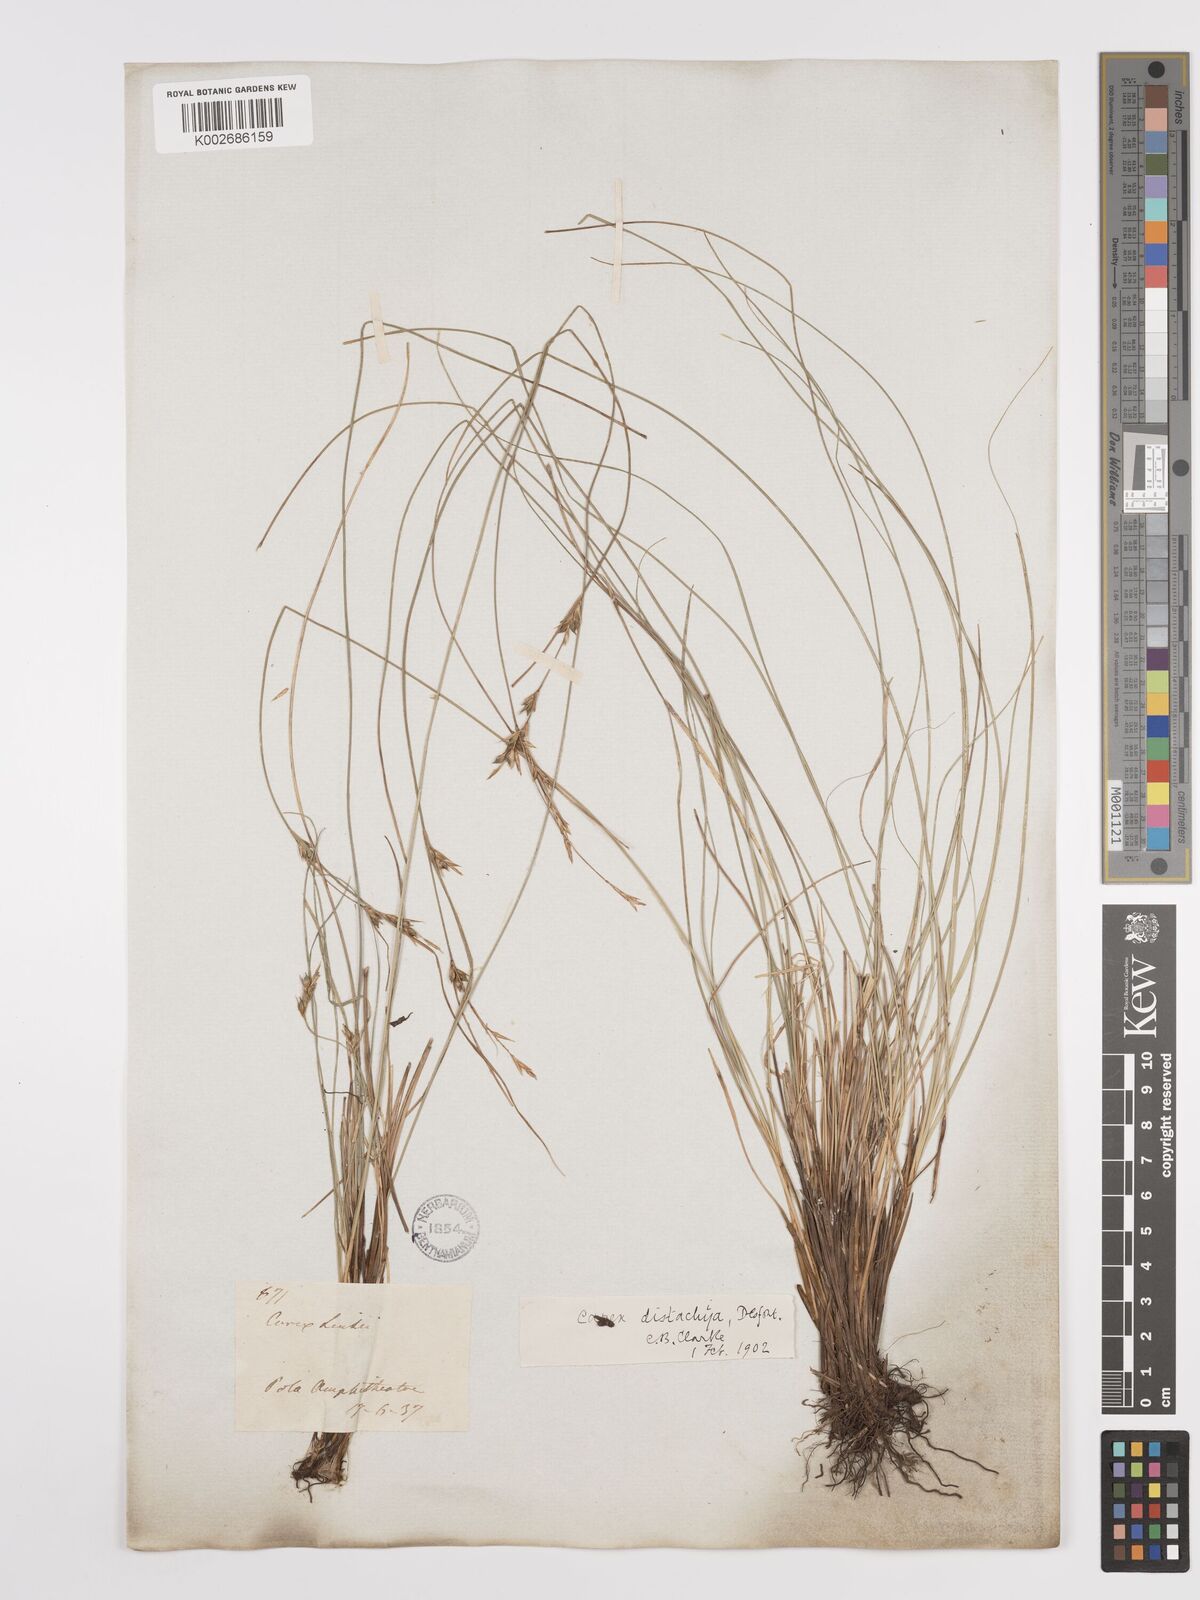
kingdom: Plantae
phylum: Tracheophyta
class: Liliopsida
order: Poales
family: Cyperaceae
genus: Carex
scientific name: Carex distachya
